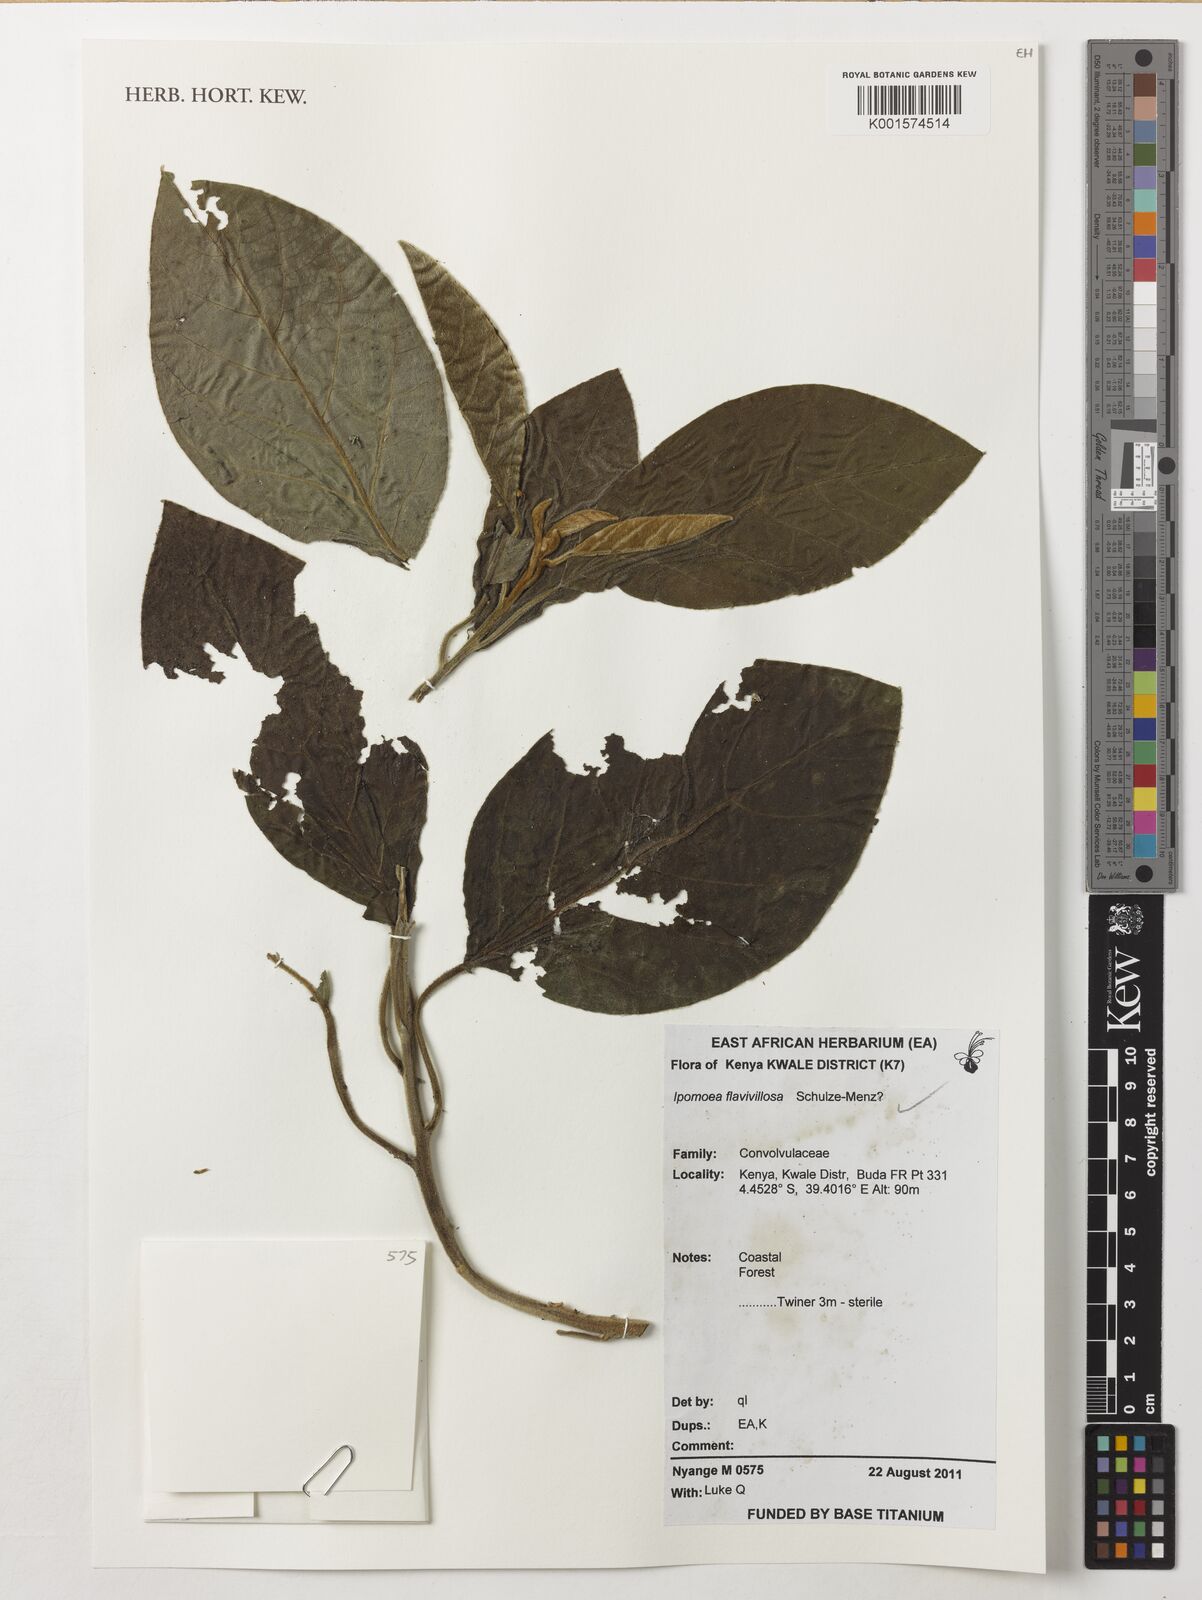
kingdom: Plantae
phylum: Tracheophyta
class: Magnoliopsida
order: Solanales
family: Convolvulaceae
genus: Ipomoea
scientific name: Ipomoea flavivillosa
